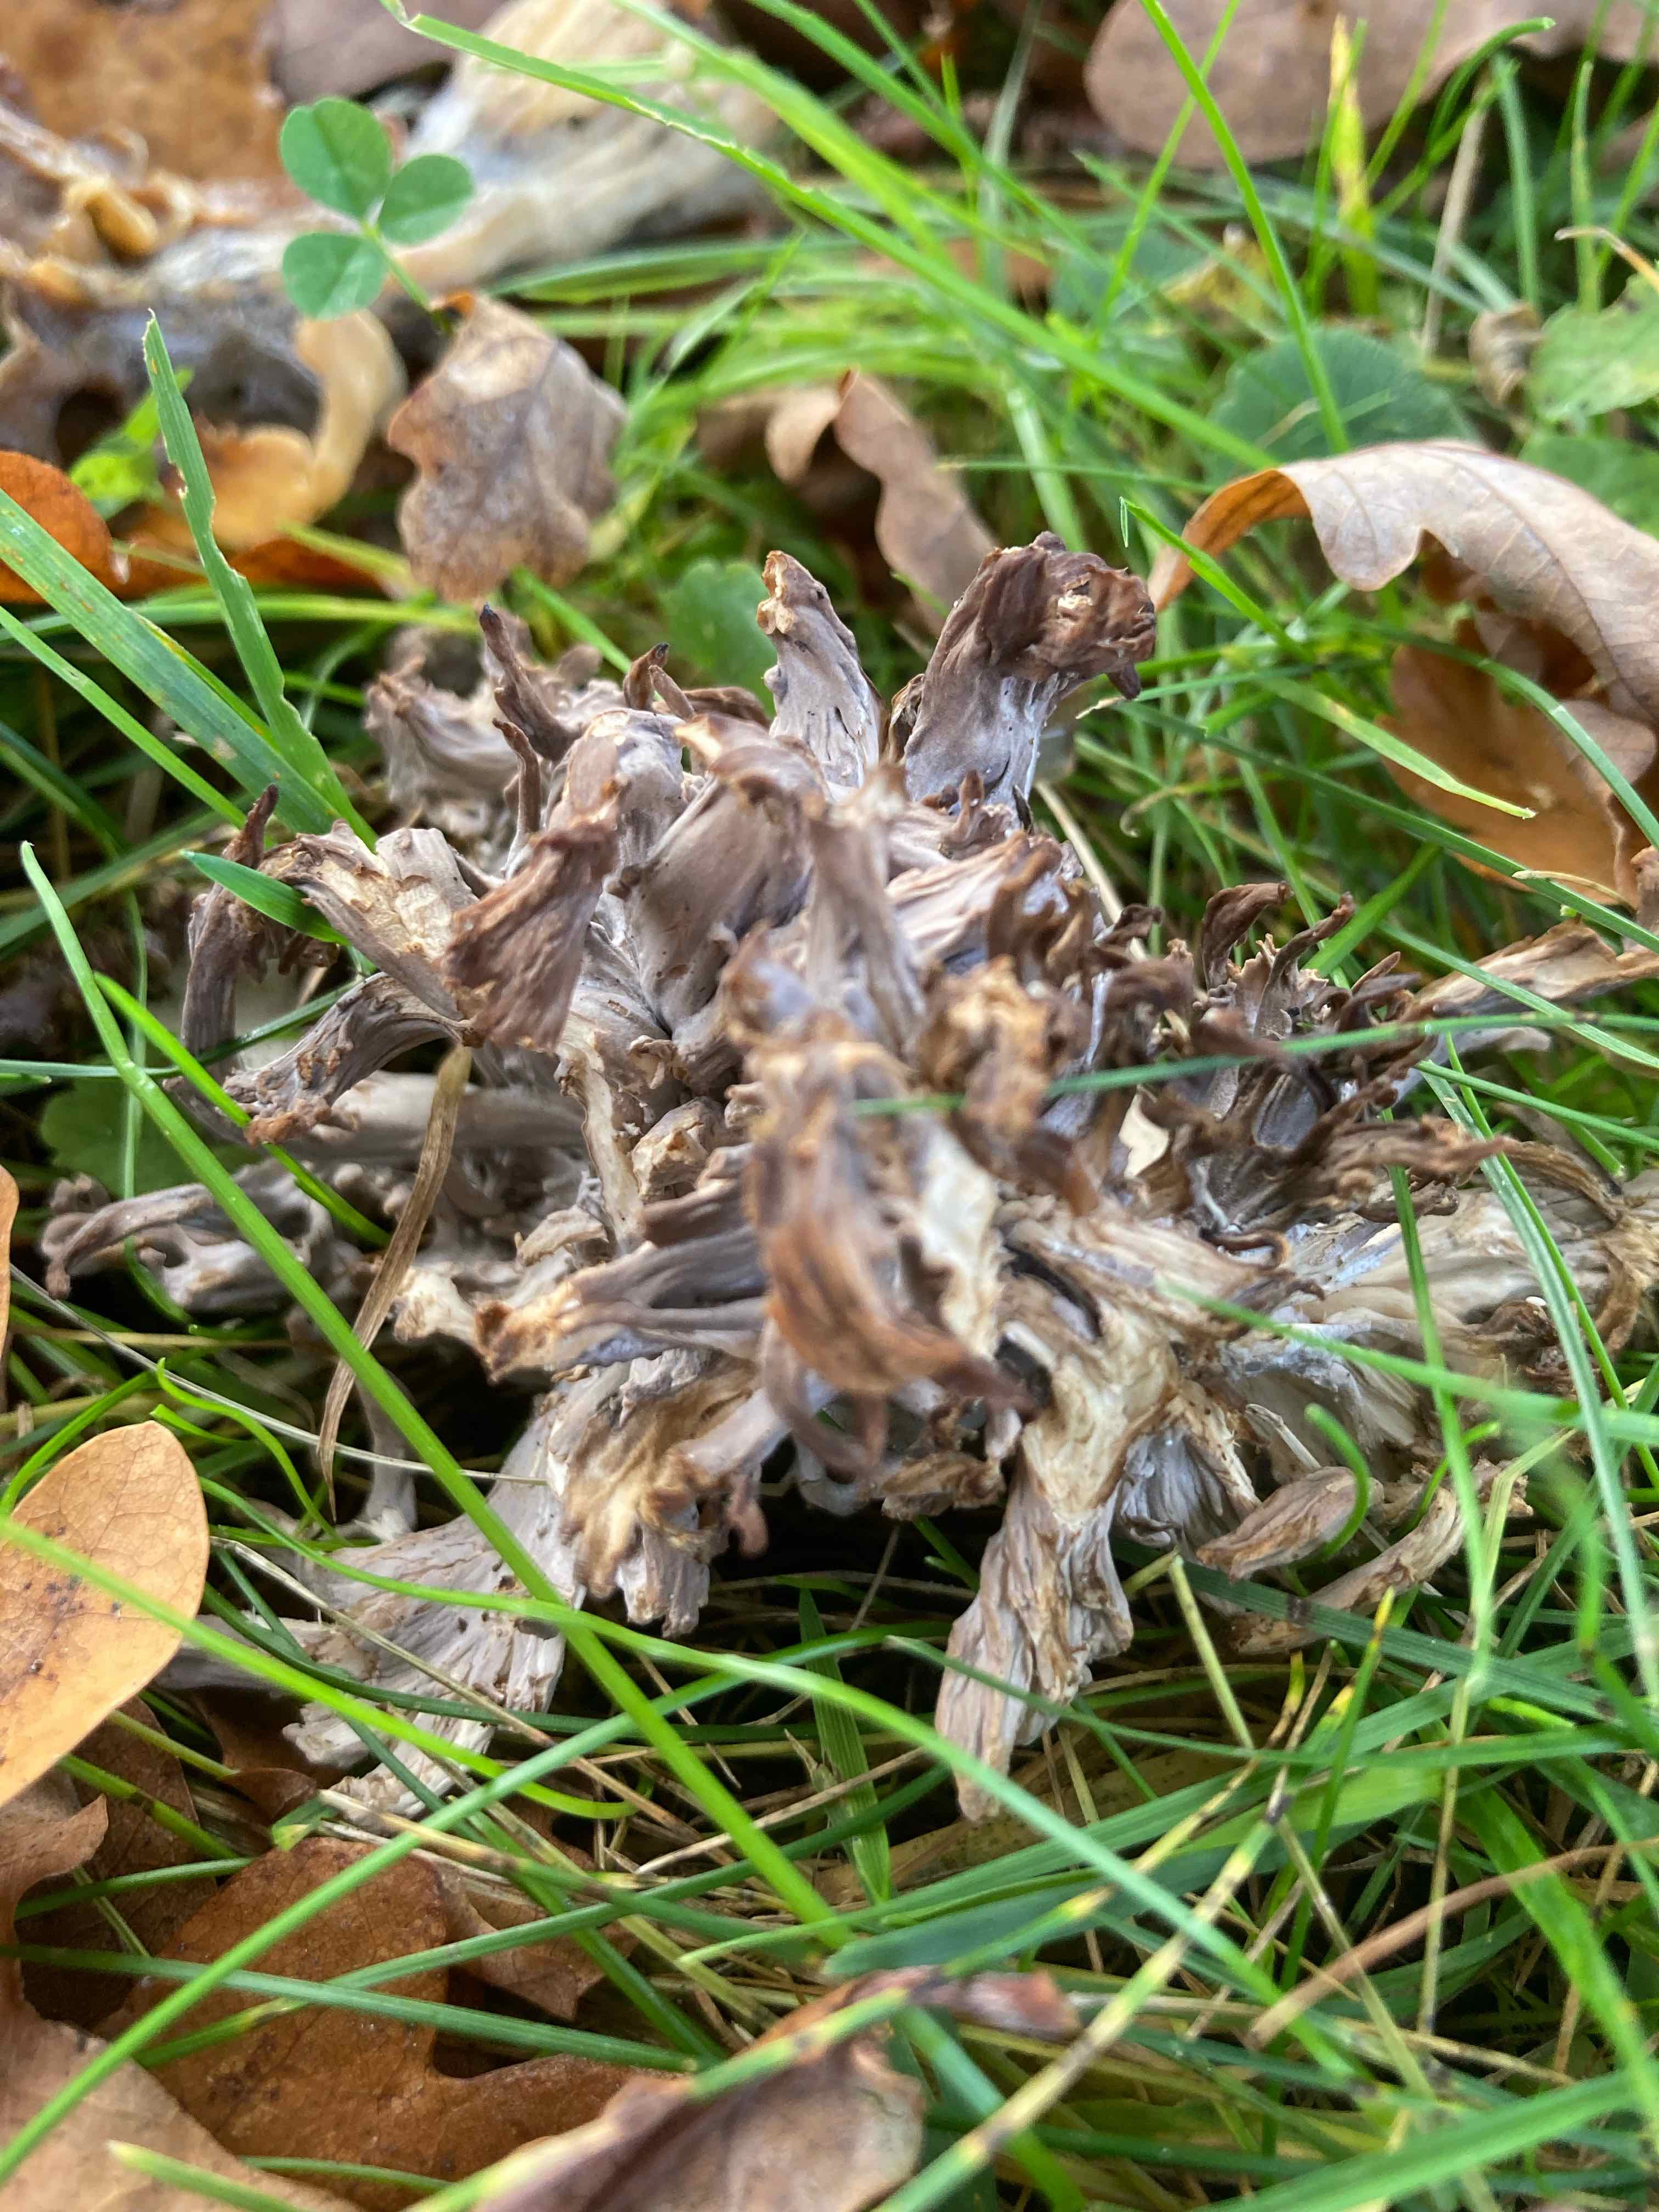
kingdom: Fungi
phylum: Basidiomycota
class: Agaricomycetes
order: Cantharellales
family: Hydnaceae
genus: Clavulina
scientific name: Clavulina
